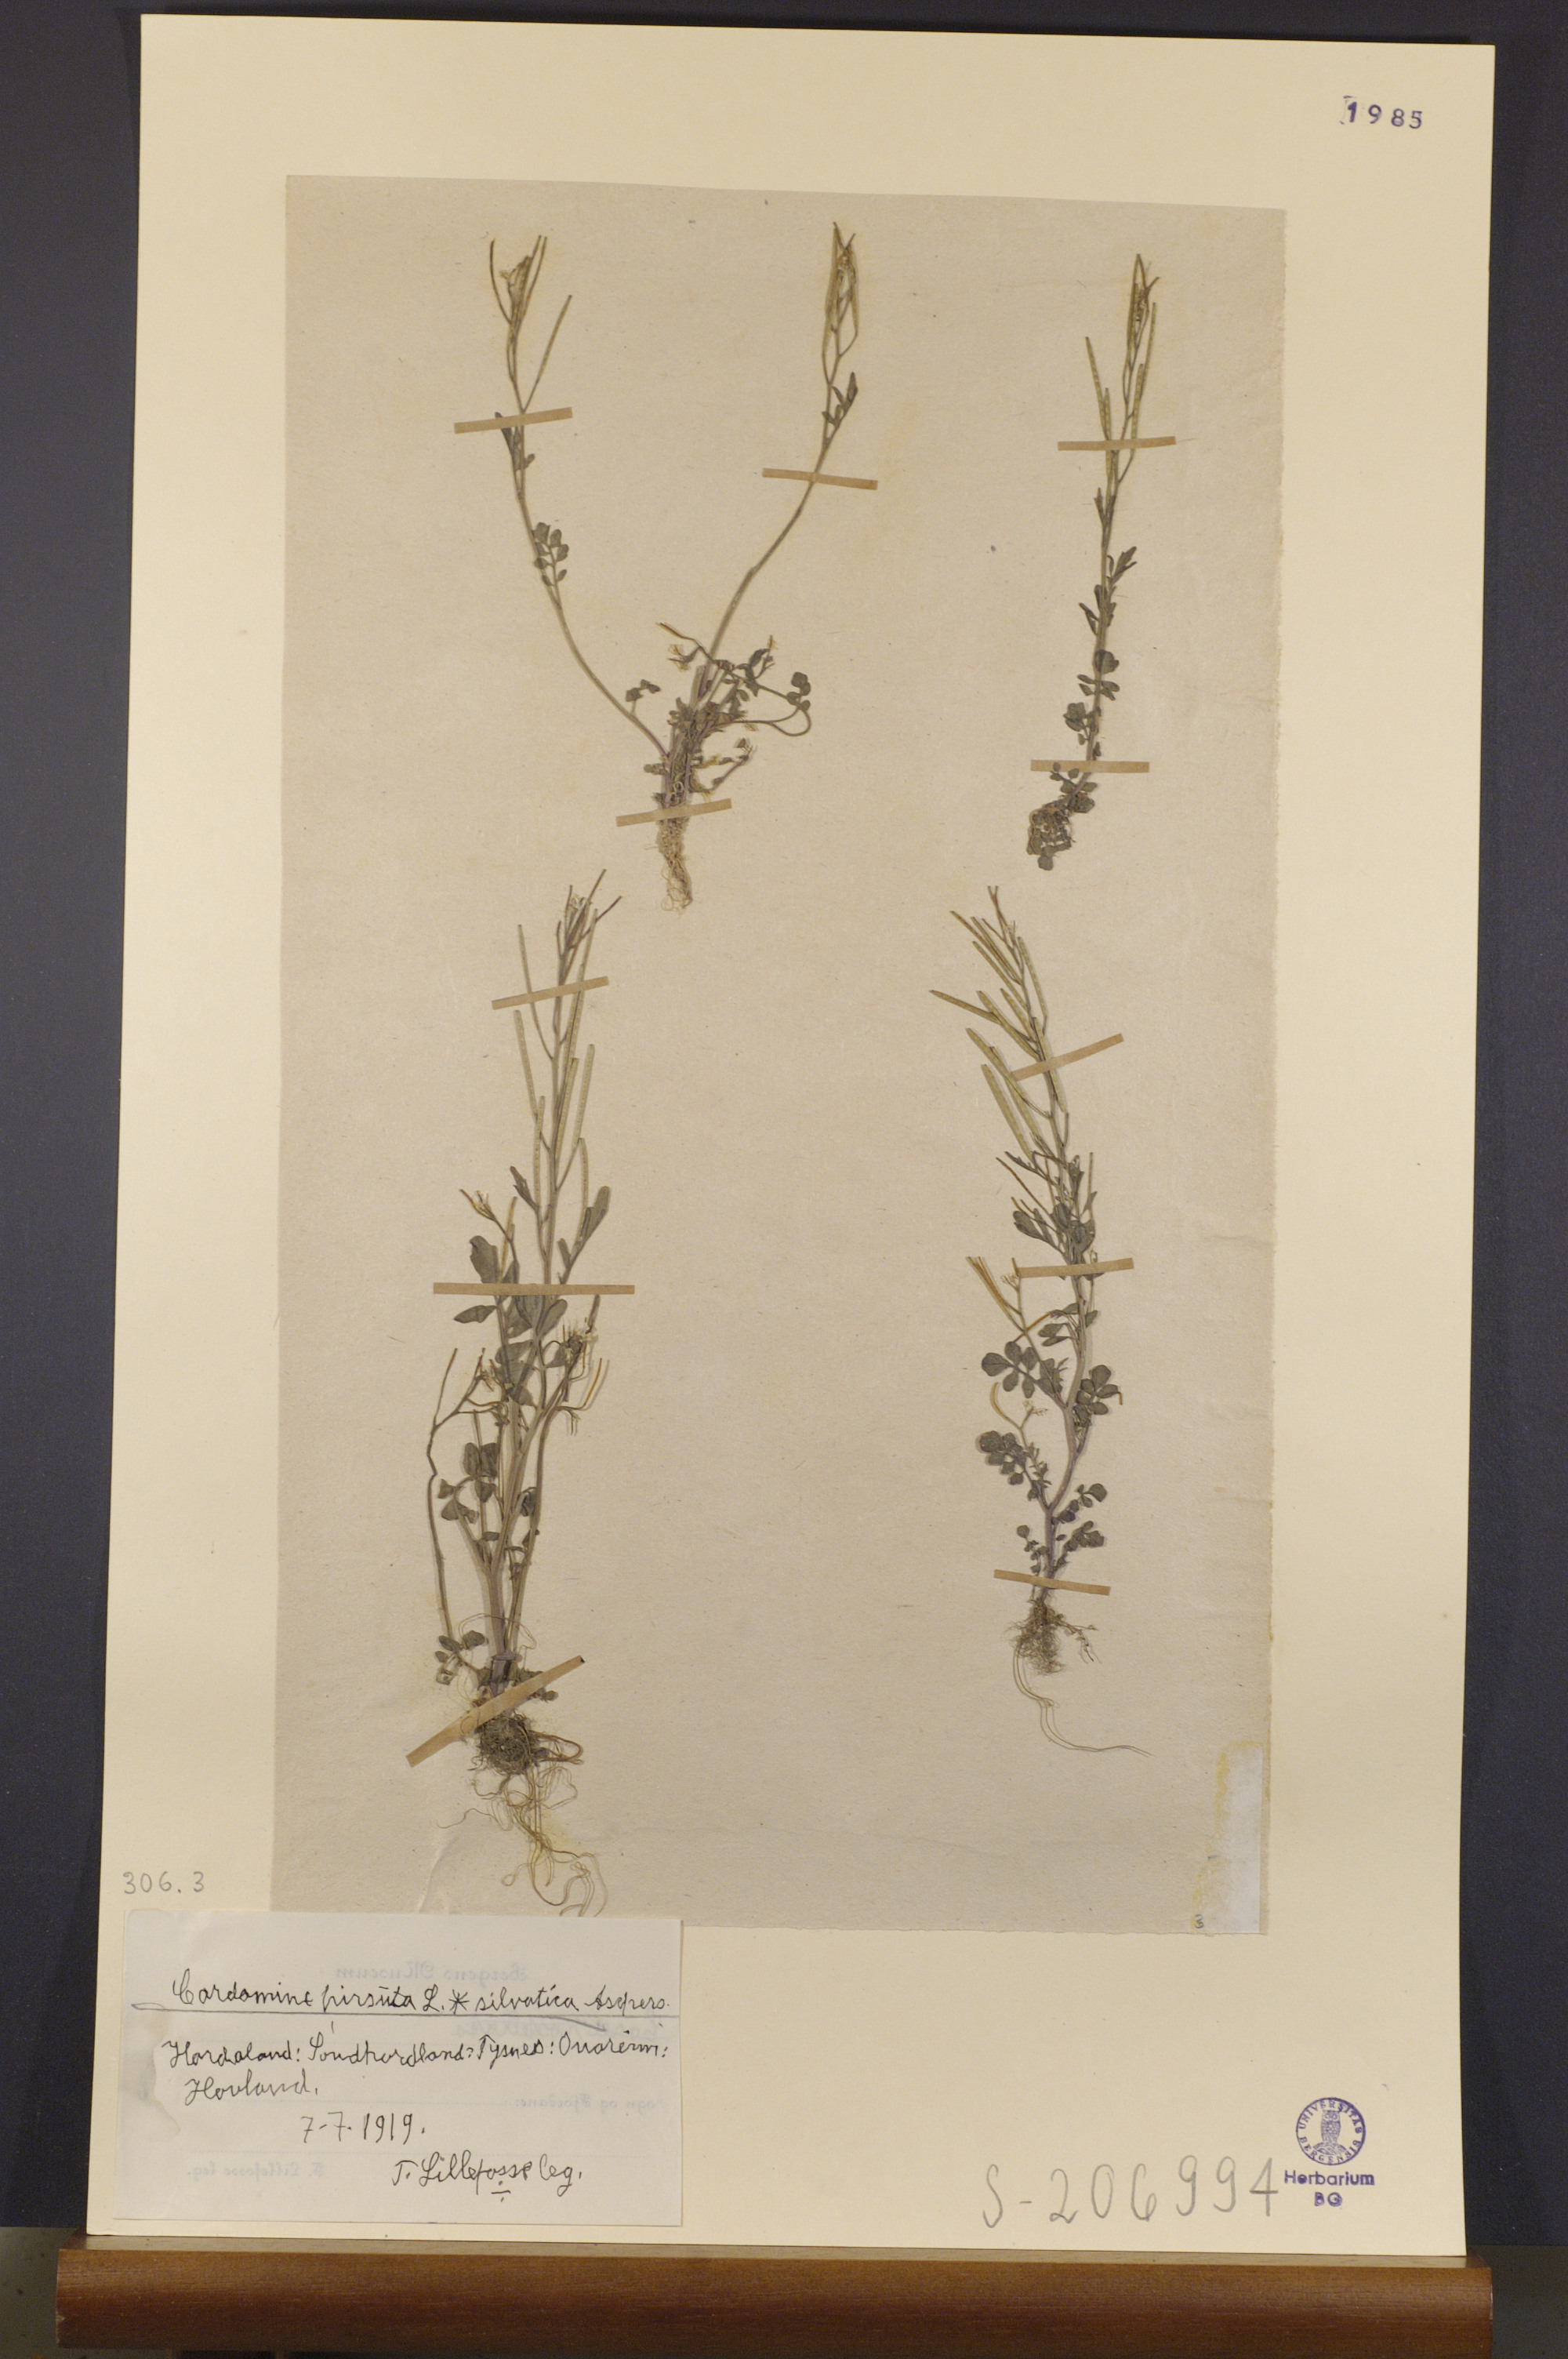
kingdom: Plantae
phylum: Tracheophyta
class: Magnoliopsida
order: Brassicales
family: Brassicaceae
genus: Cardamine
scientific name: Cardamine flexuosa
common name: Woodland bittercress
